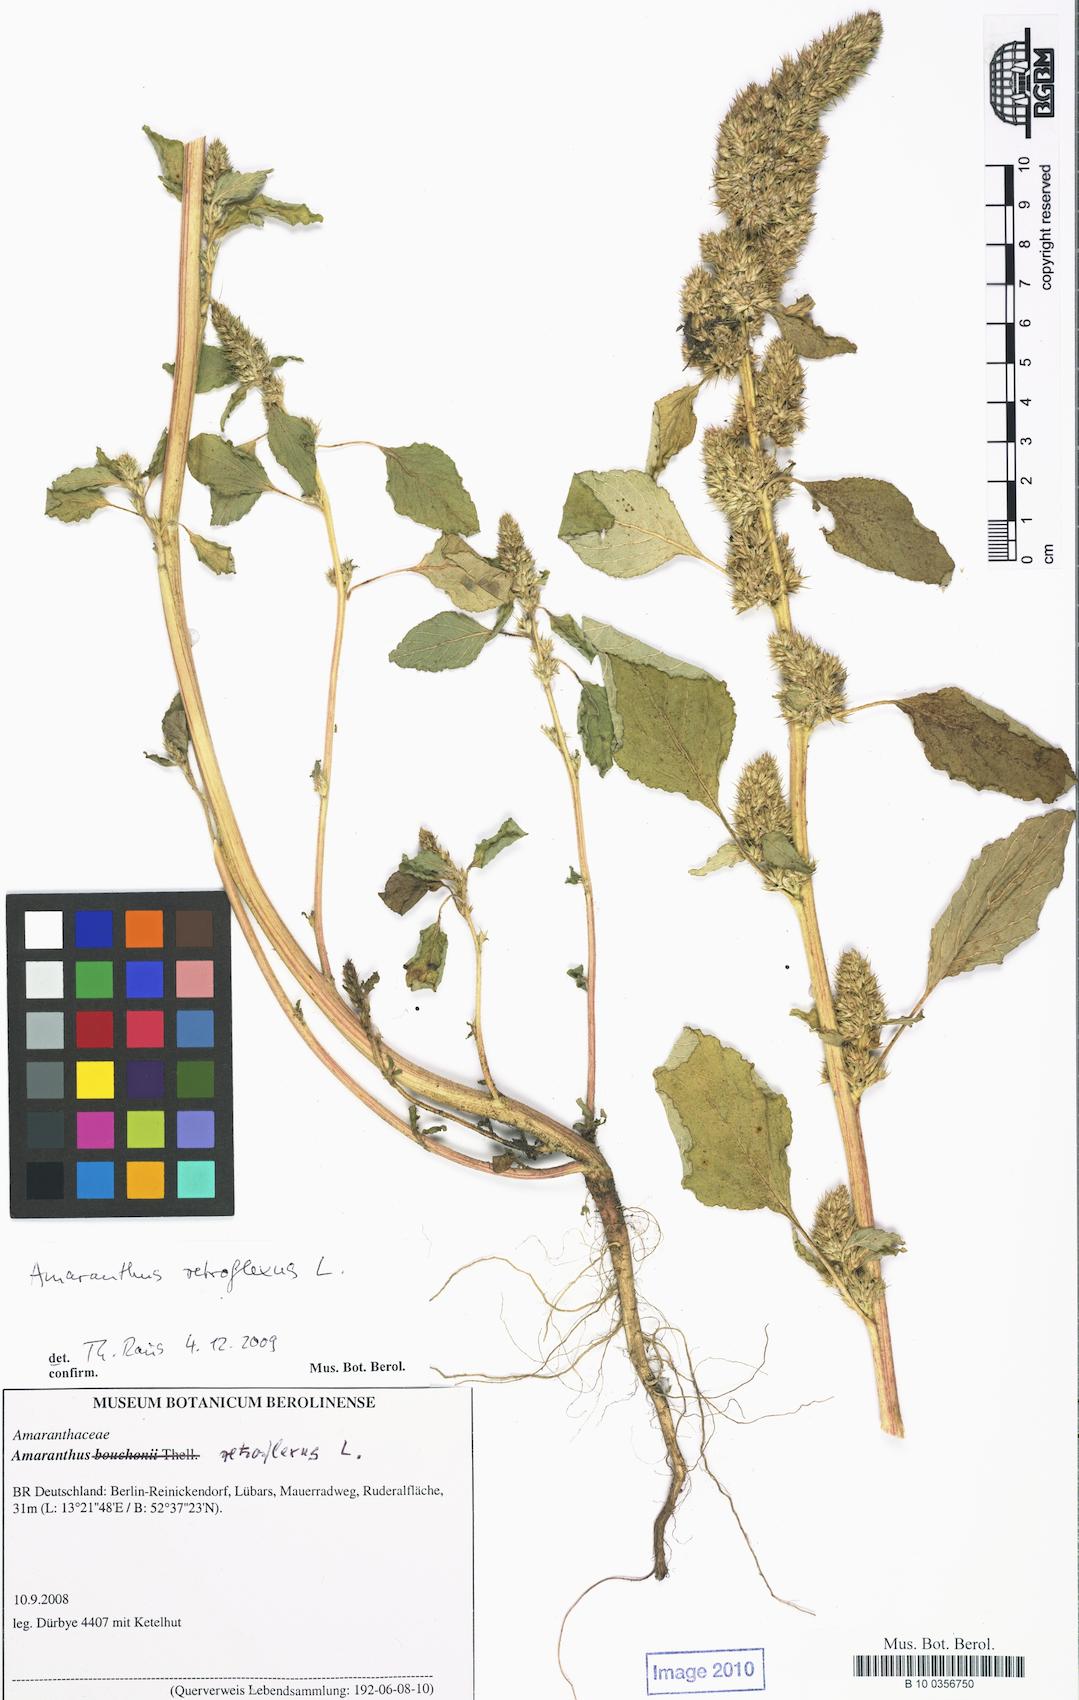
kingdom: Plantae
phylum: Tracheophyta
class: Magnoliopsida
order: Caryophyllales
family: Amaranthaceae
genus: Amaranthus
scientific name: Amaranthus bouchonii
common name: Indehiscent amaranth
